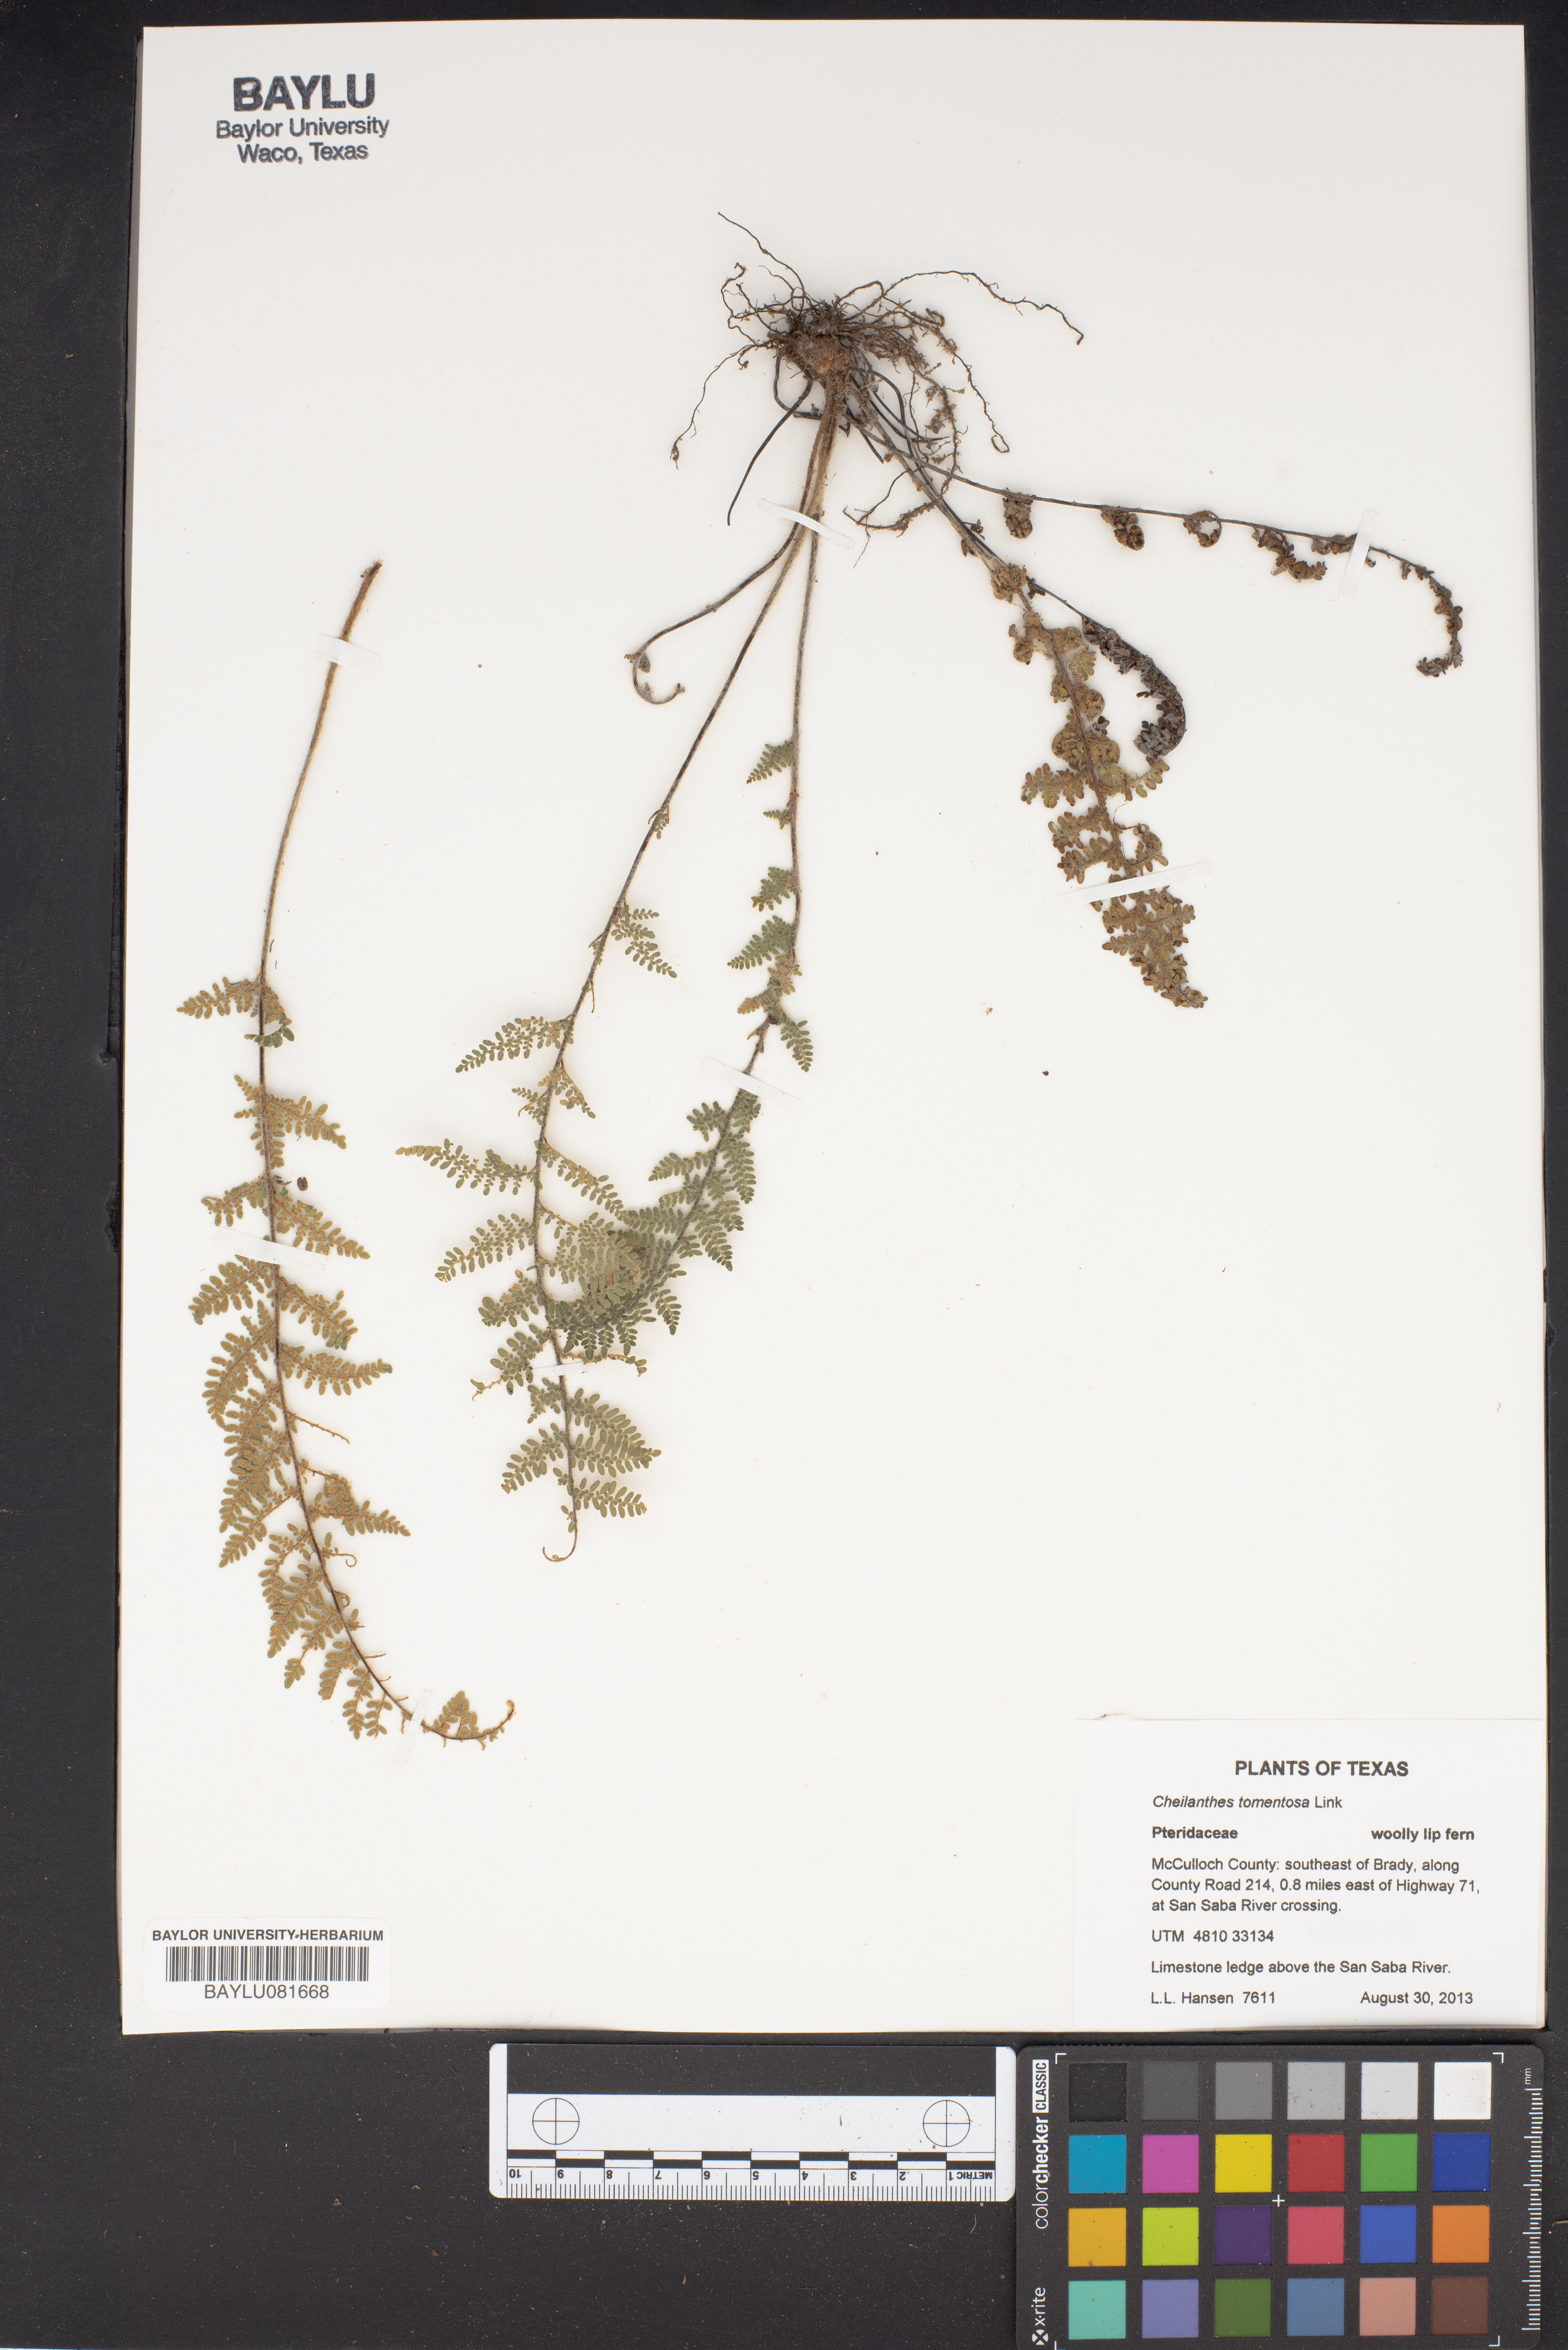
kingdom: Plantae
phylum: Tracheophyta
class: Polypodiopsida
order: Polypodiales
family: Pteridaceae
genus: Myriopteris
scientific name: Myriopteris tomentosa
